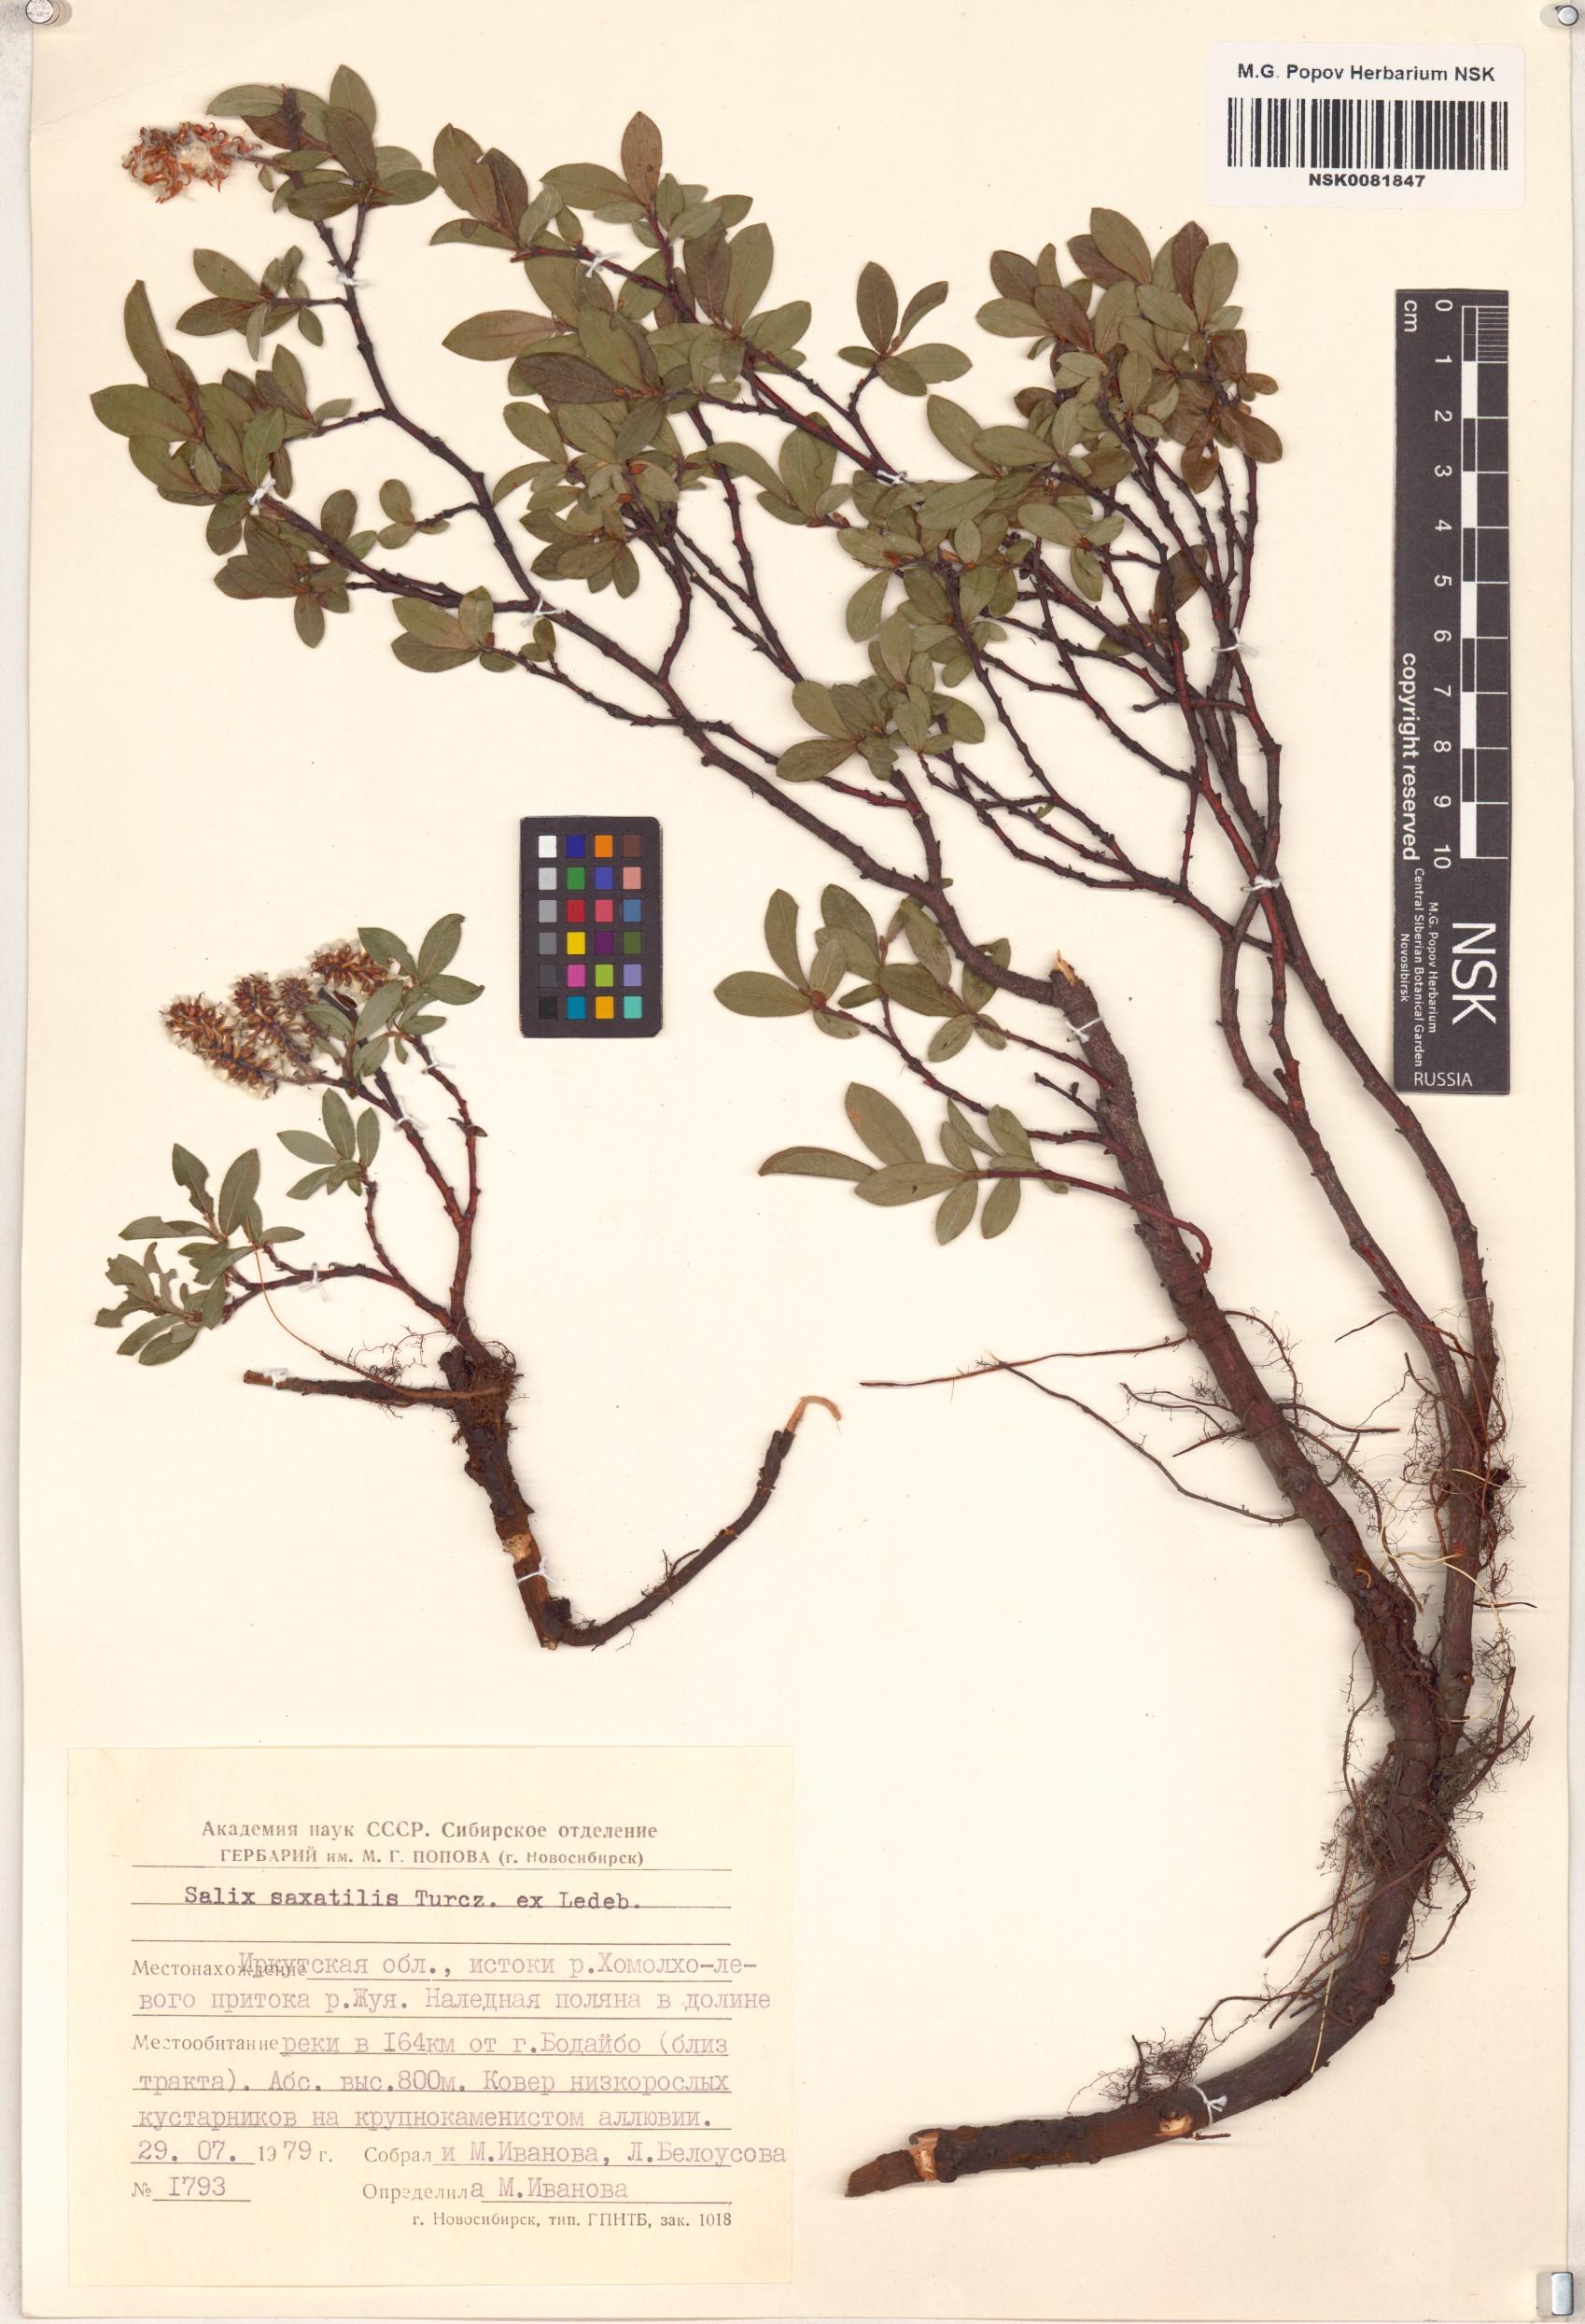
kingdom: Plantae
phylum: Tracheophyta
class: Magnoliopsida
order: Malpighiales
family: Salicaceae
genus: Salix
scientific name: Salix saxatilis
